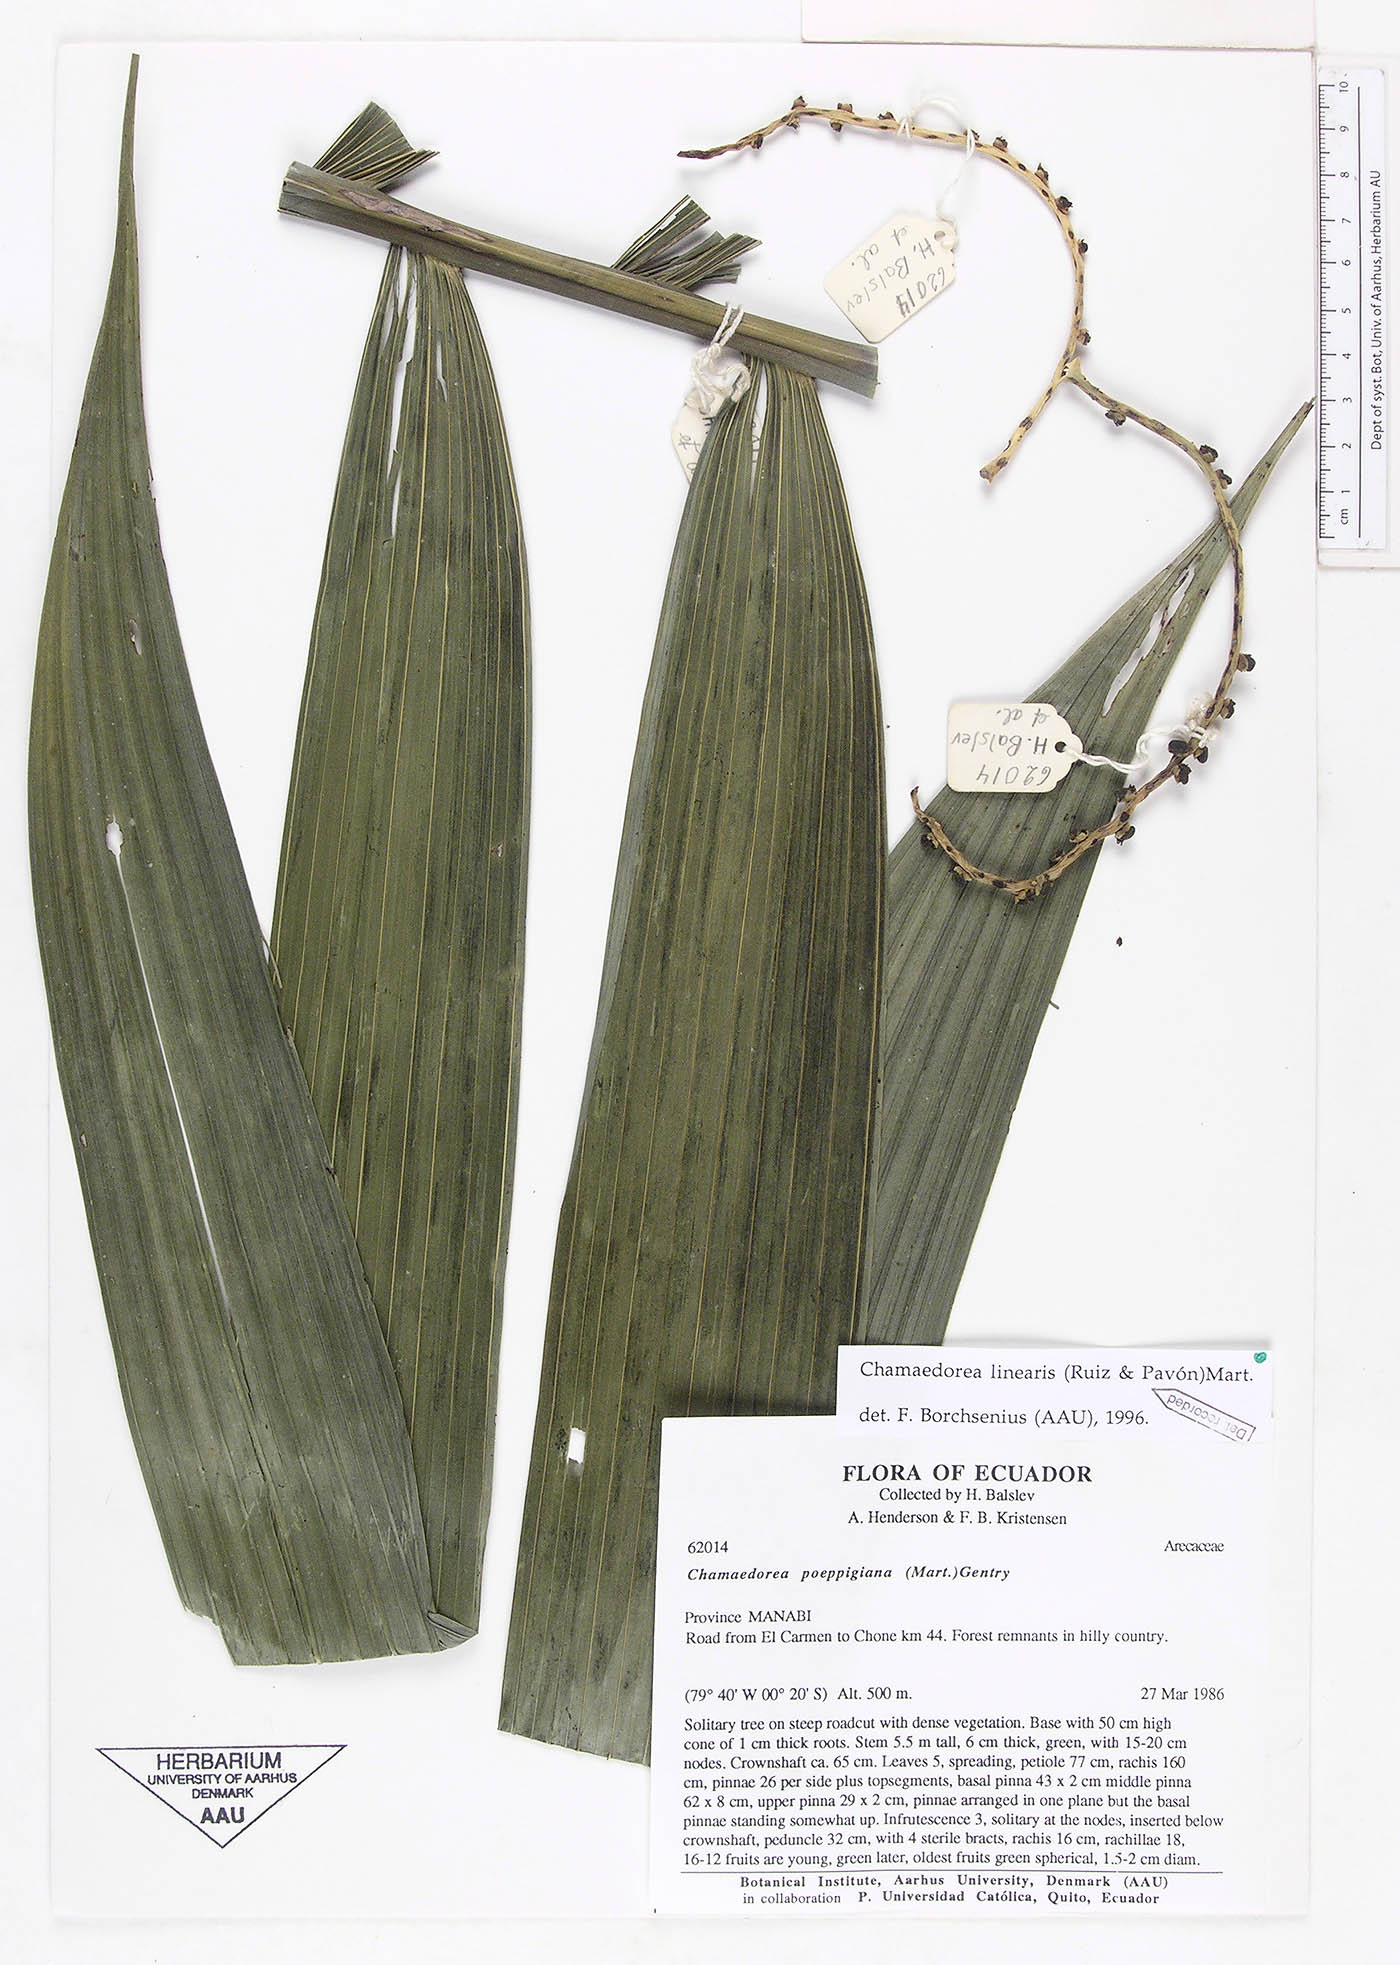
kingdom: Plantae
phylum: Tracheophyta
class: Liliopsida
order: Arecales
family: Arecaceae
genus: Chamaedorea
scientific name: Chamaedorea linearis
